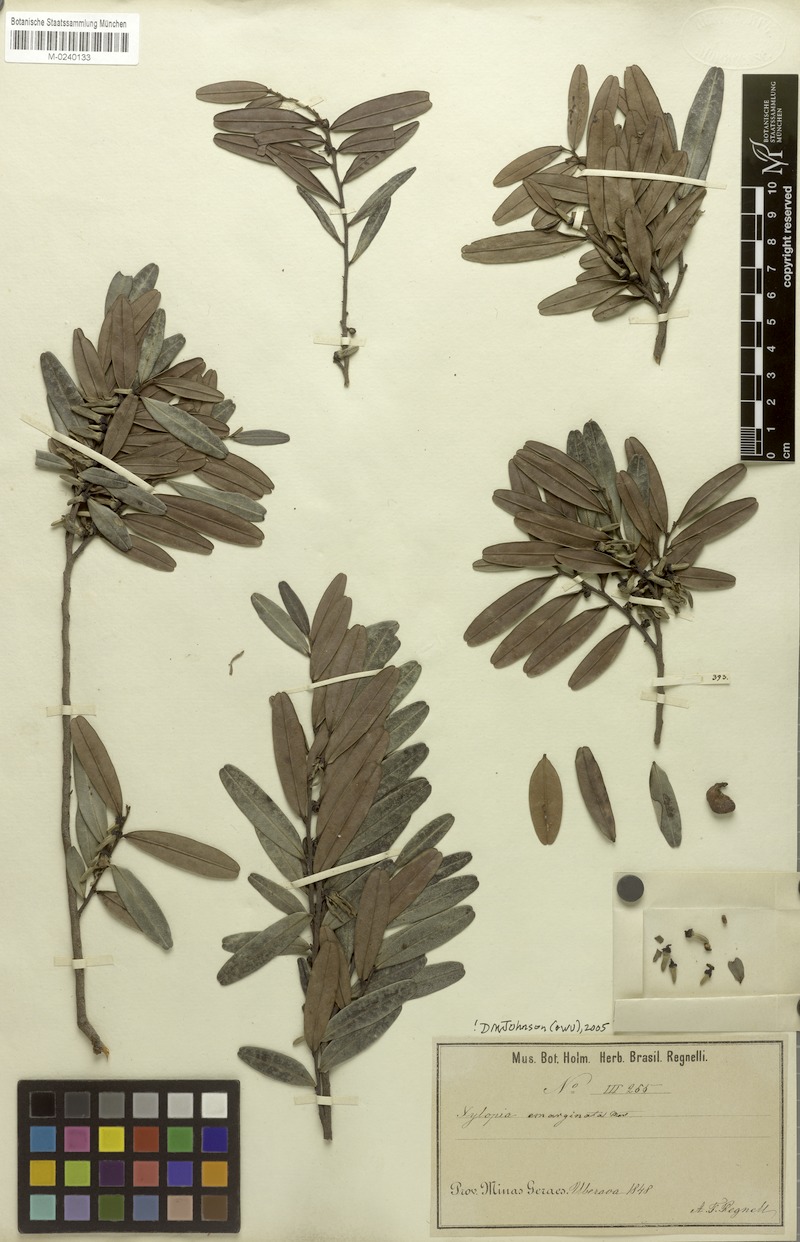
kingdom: Plantae
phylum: Tracheophyta
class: Magnoliopsida
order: Magnoliales
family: Annonaceae
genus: Xylopia
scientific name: Xylopia emarginata
